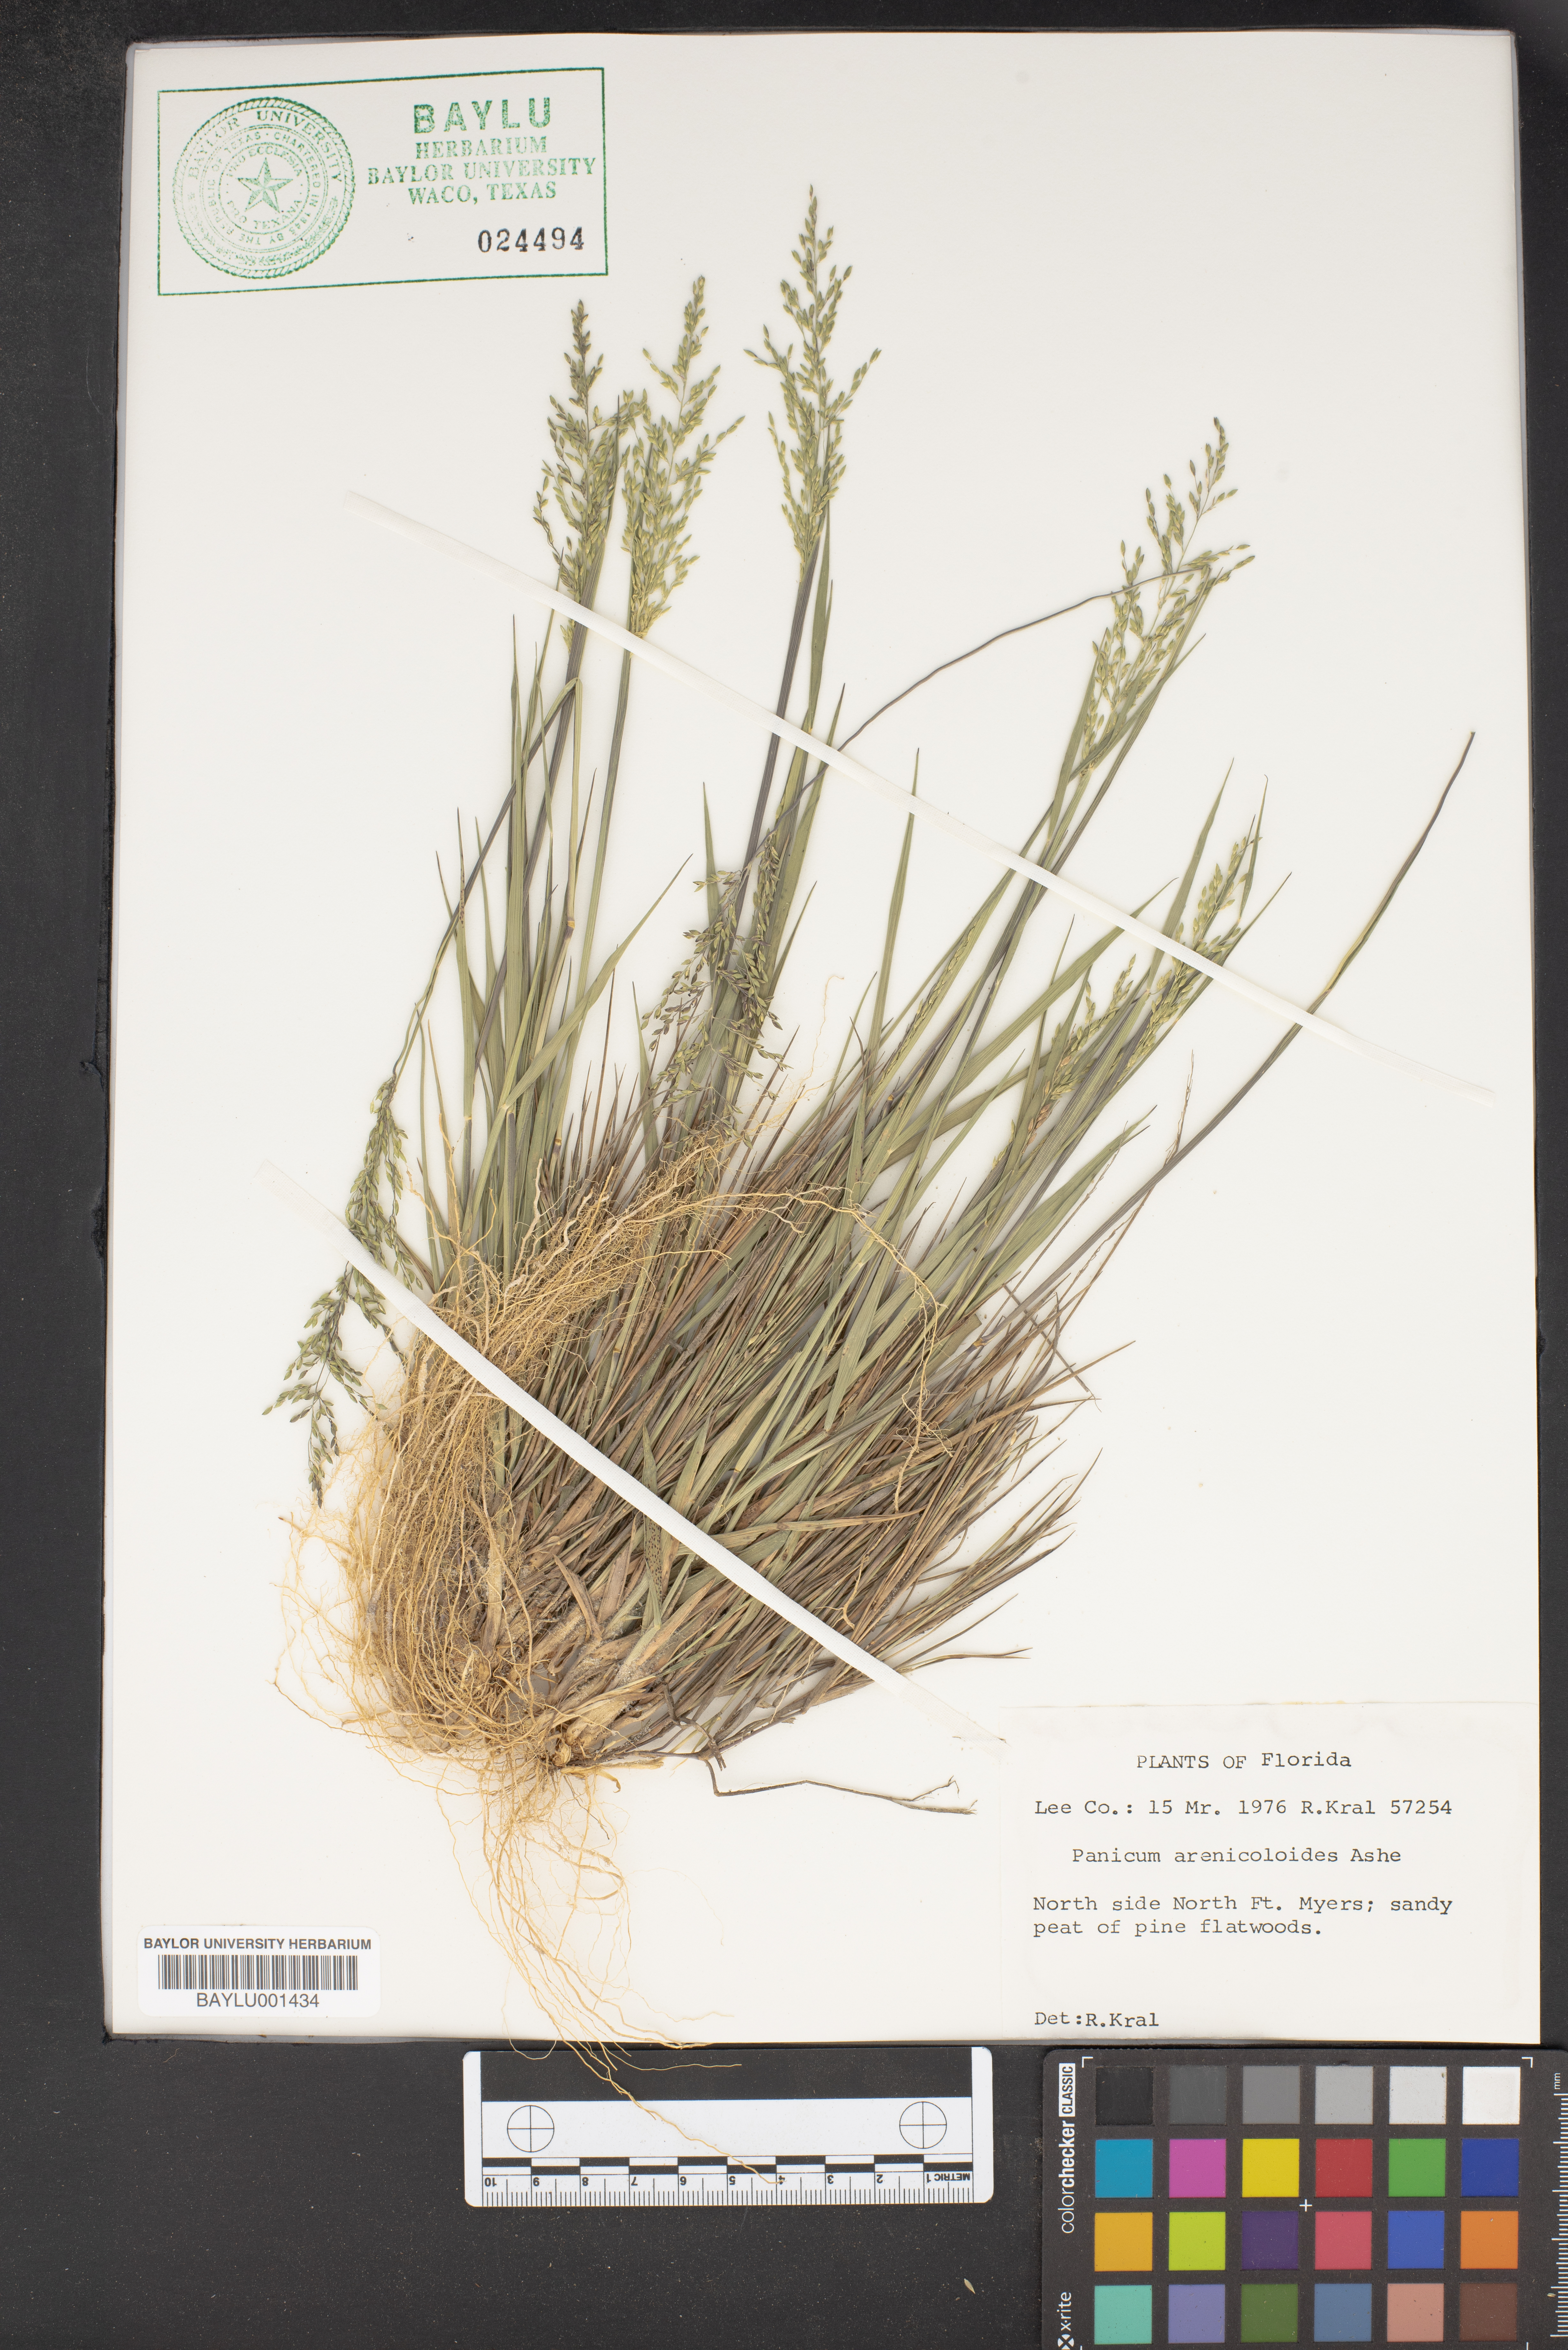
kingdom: Plantae
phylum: Tracheophyta
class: Liliopsida
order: Poales
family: Poaceae
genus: Dichanthelium
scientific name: Dichanthelium arenicoloides
